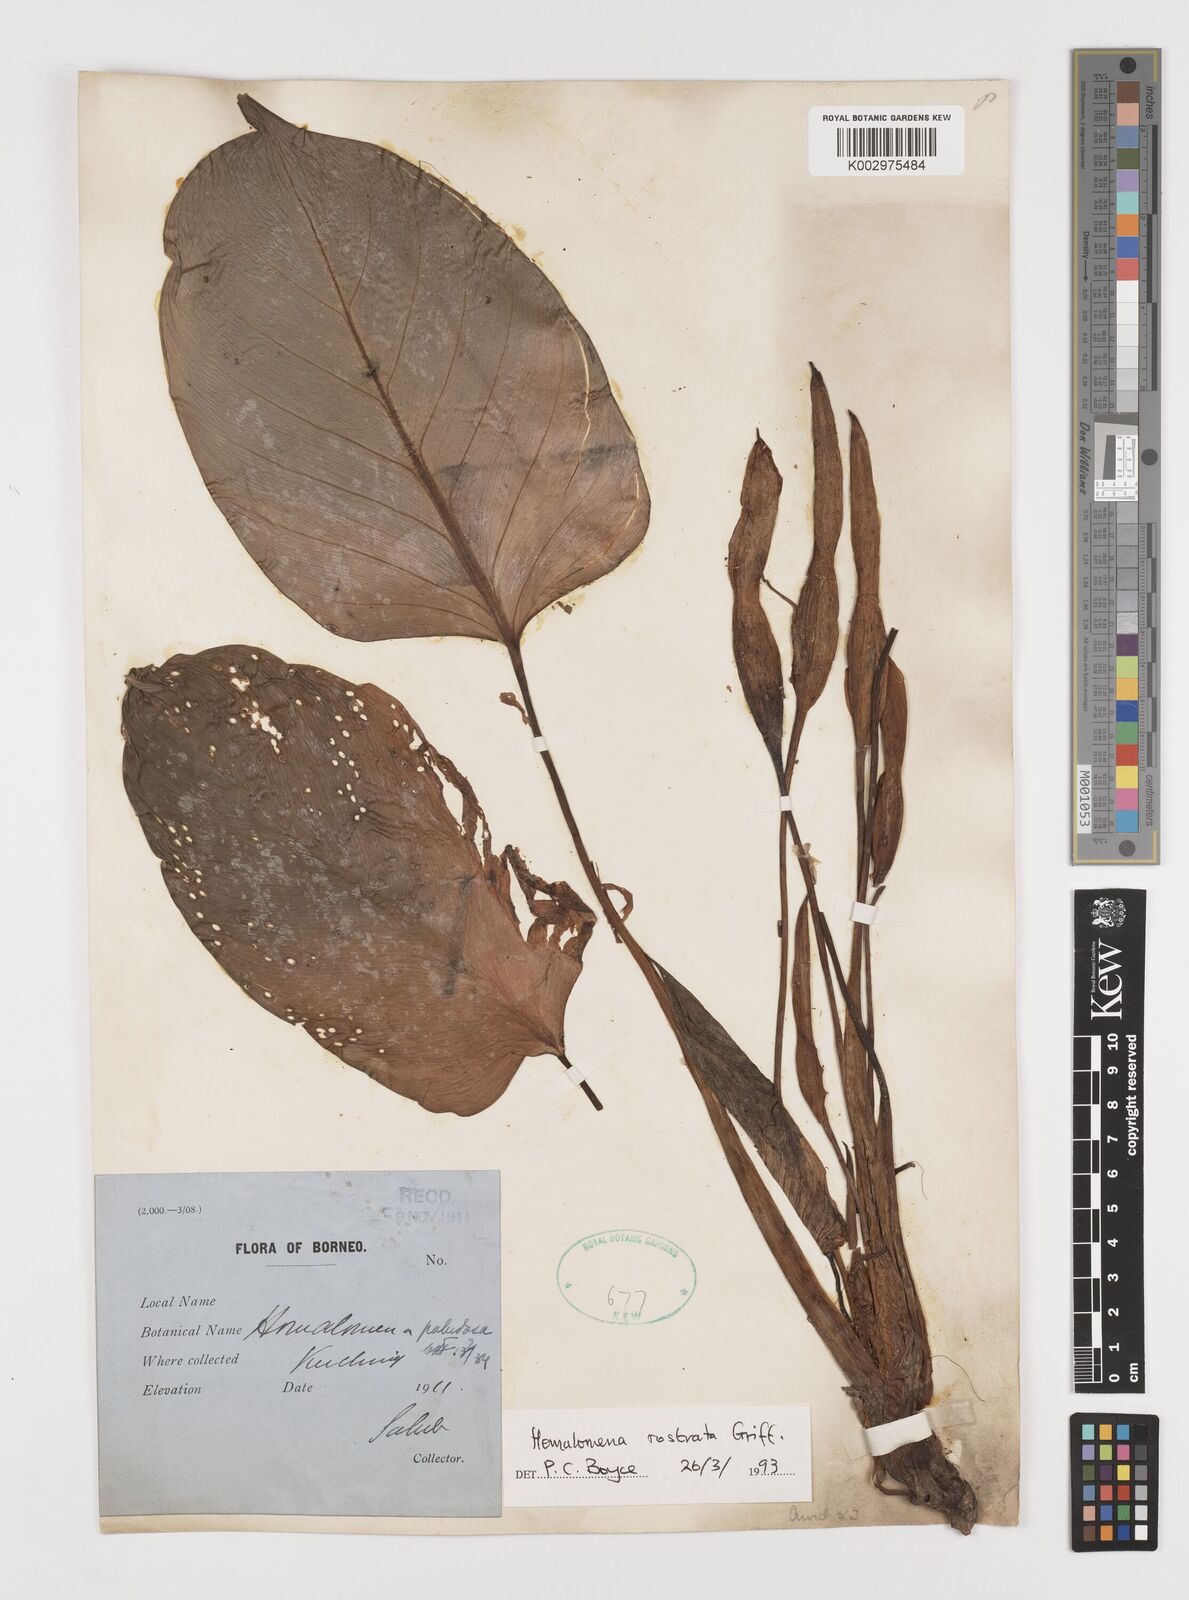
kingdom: Plantae
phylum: Tracheophyta
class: Liliopsida
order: Alismatales
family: Araceae
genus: Homalomena
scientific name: Homalomena rostrata
